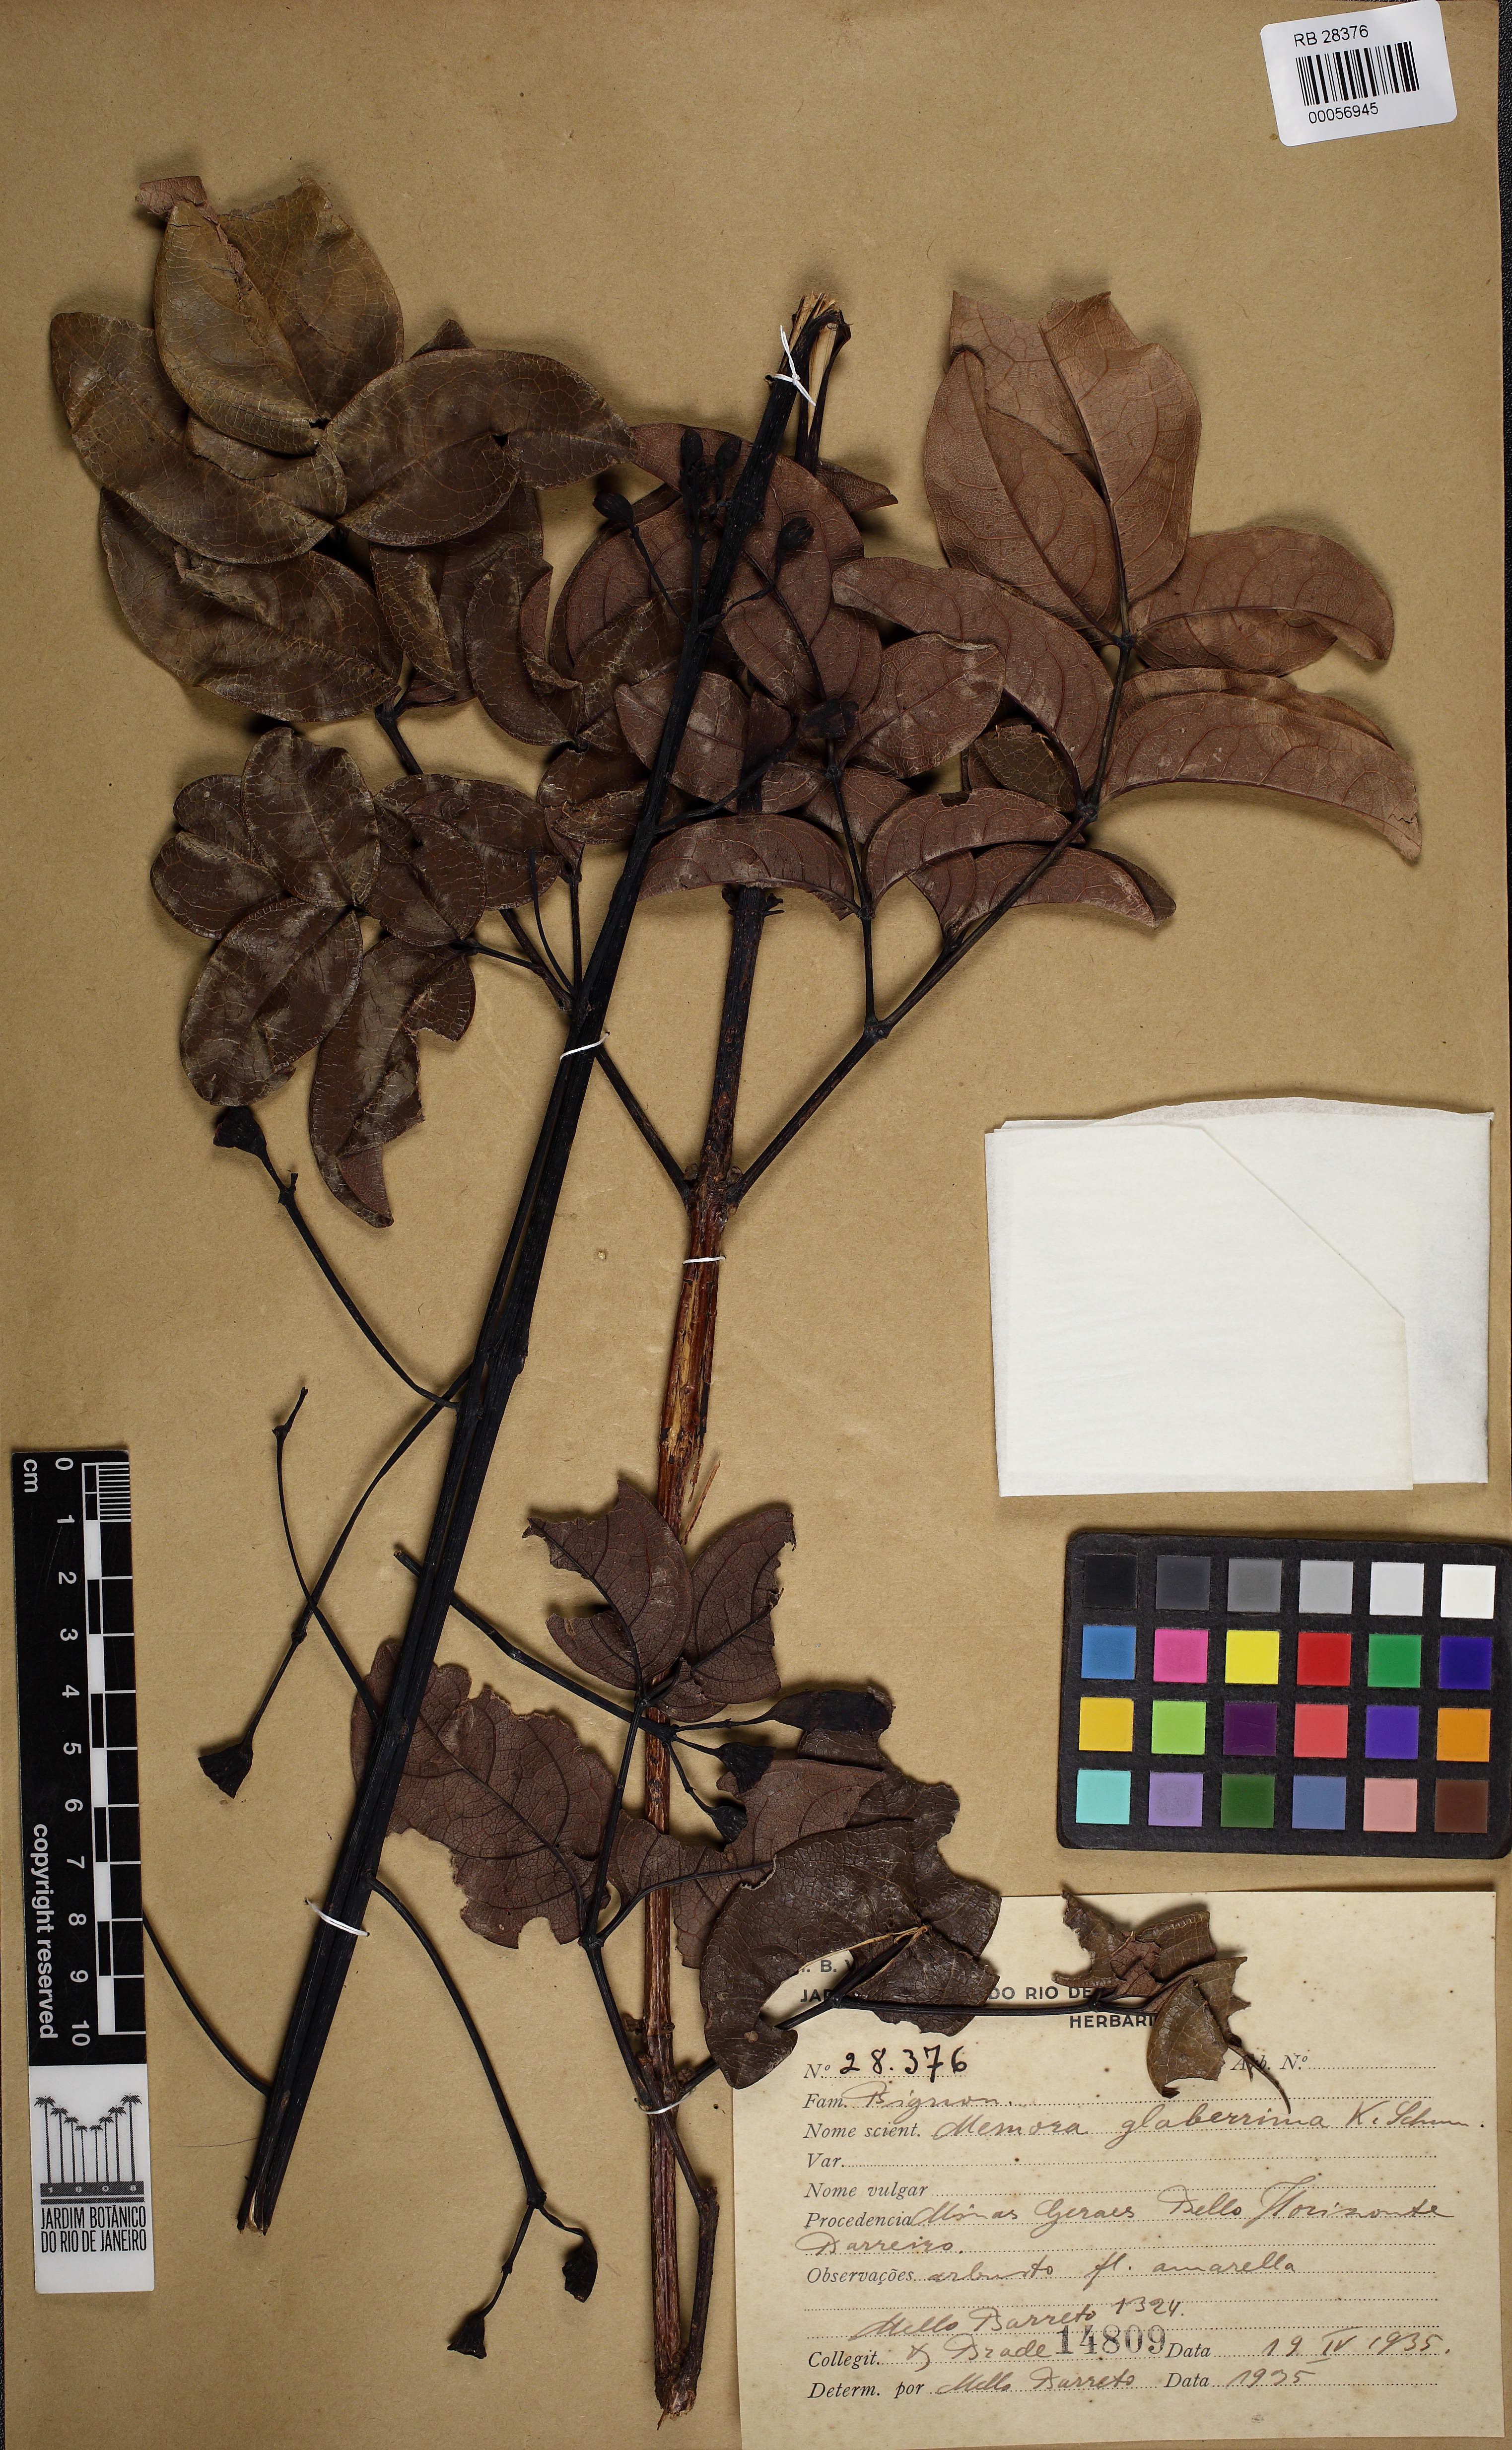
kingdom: Plantae
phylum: Tracheophyta
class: Magnoliopsida
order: Lamiales
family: Bignoniaceae
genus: Adenocalymma
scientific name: Adenocalymma pedunculatum
